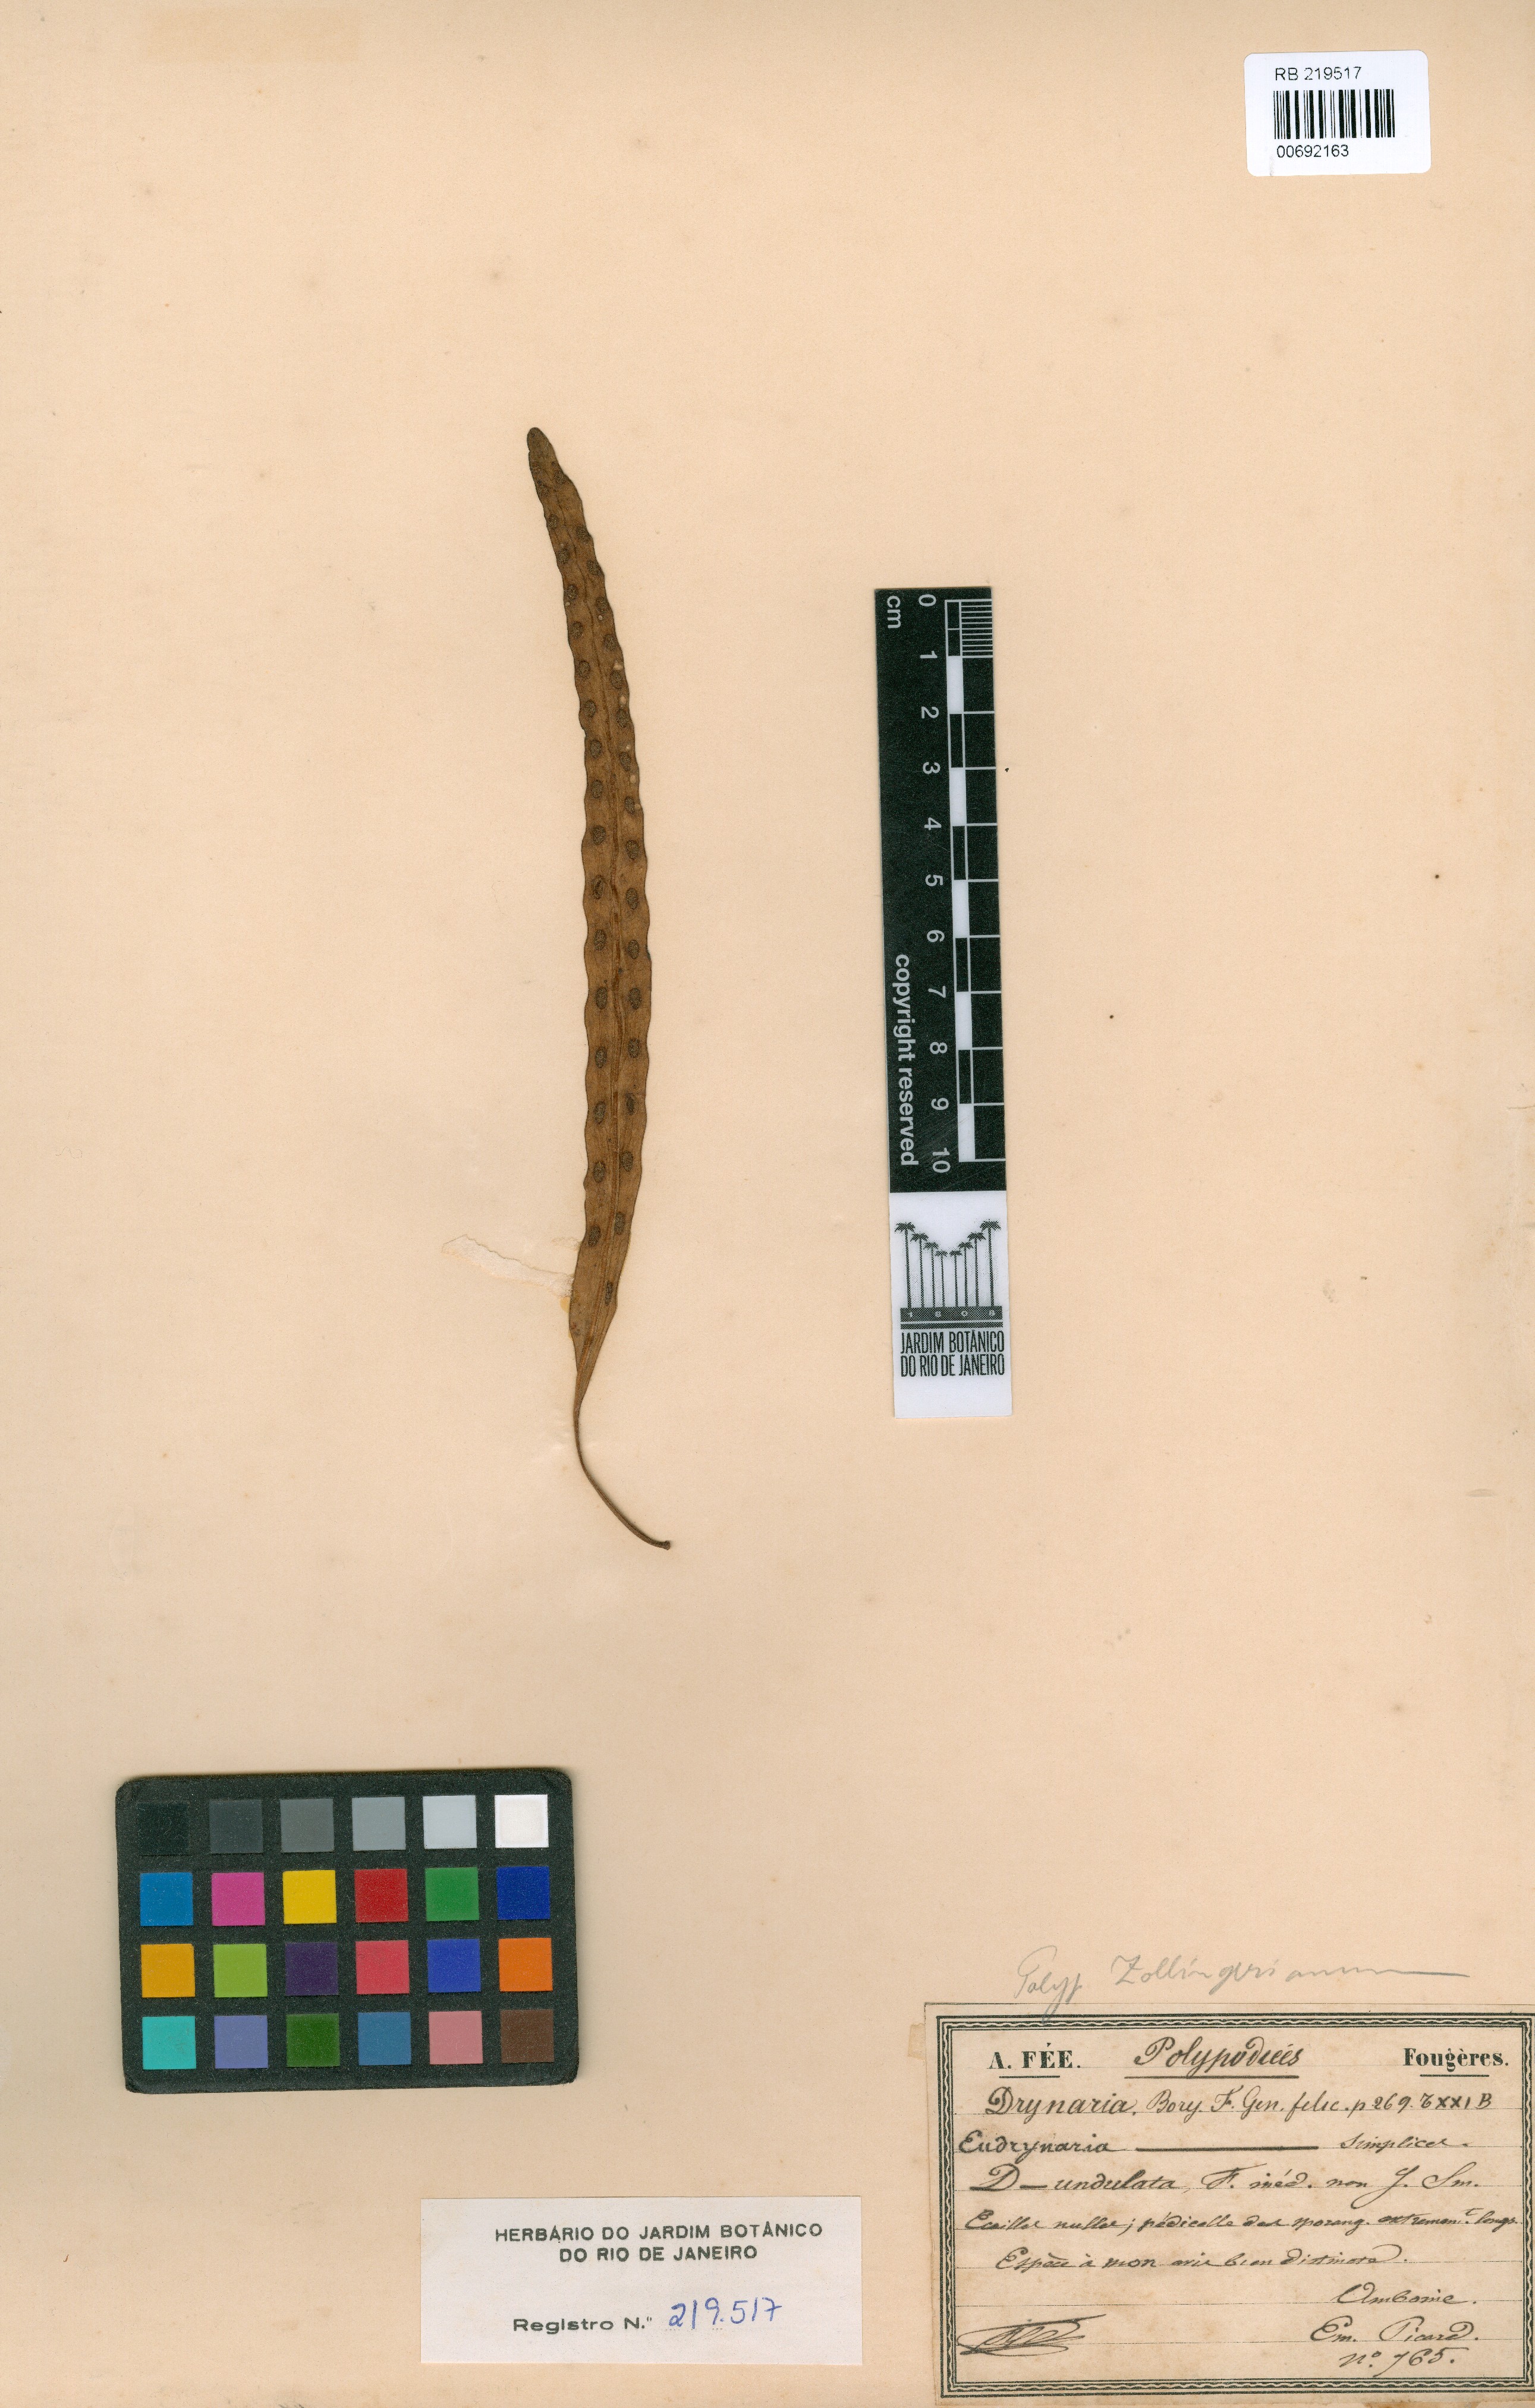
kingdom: Plantae
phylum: Tracheophyta
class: Polypodiopsida
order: Polypodiales
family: Polypodiaceae
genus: Microsorum
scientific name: Microsorum monstrosum
